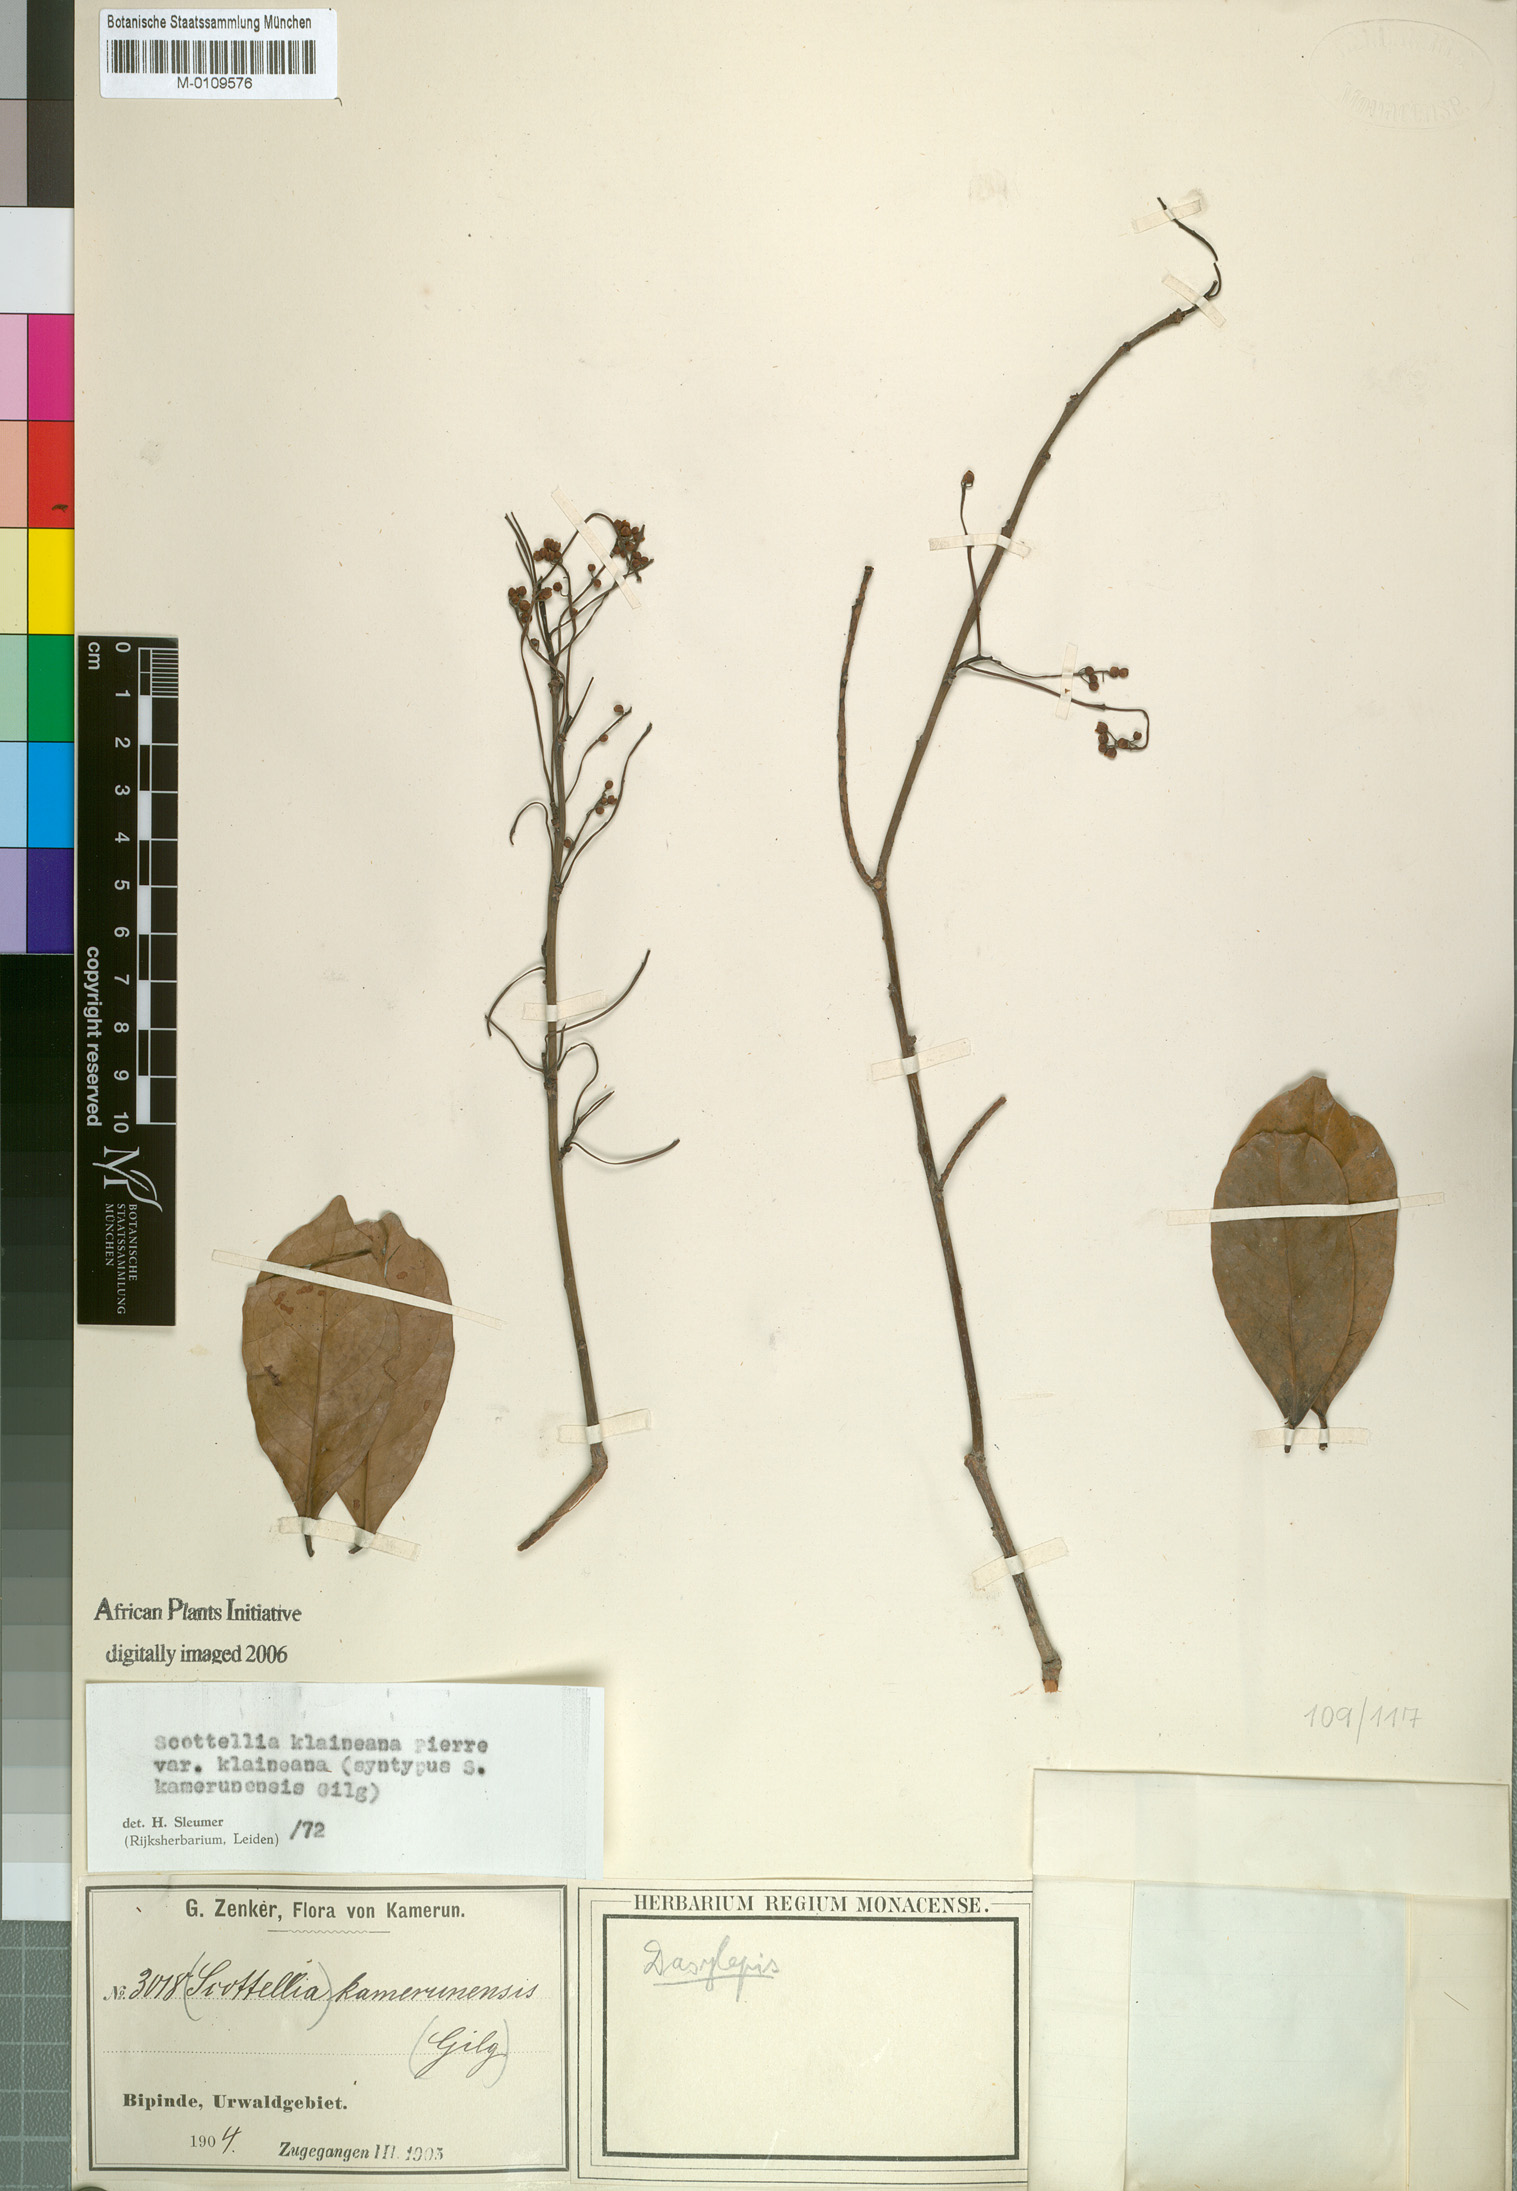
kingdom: Plantae
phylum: Tracheophyta
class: Magnoliopsida
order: Malpighiales
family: Achariaceae
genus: Scottellia
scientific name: Scottellia klaineana
